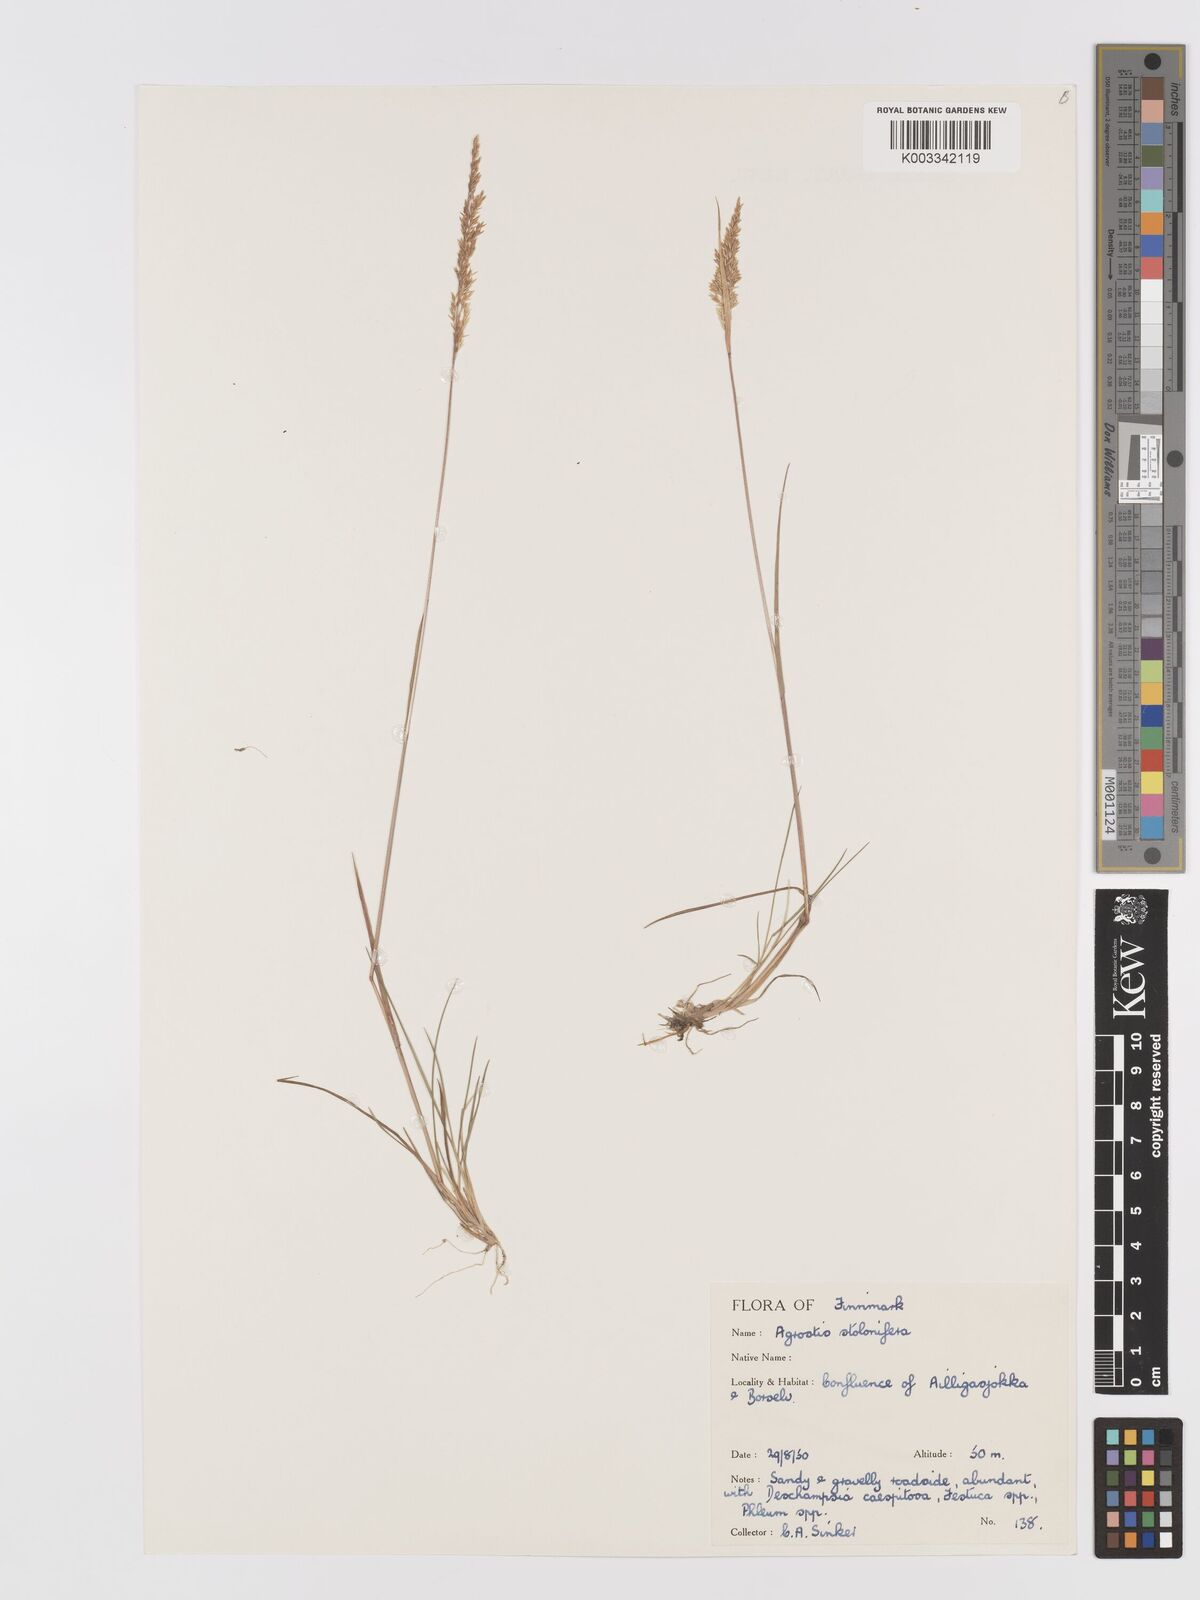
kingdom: Plantae
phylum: Tracheophyta
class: Liliopsida
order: Poales
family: Poaceae
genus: Agrostis
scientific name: Agrostis stolonifera
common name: Creeping bentgrass
